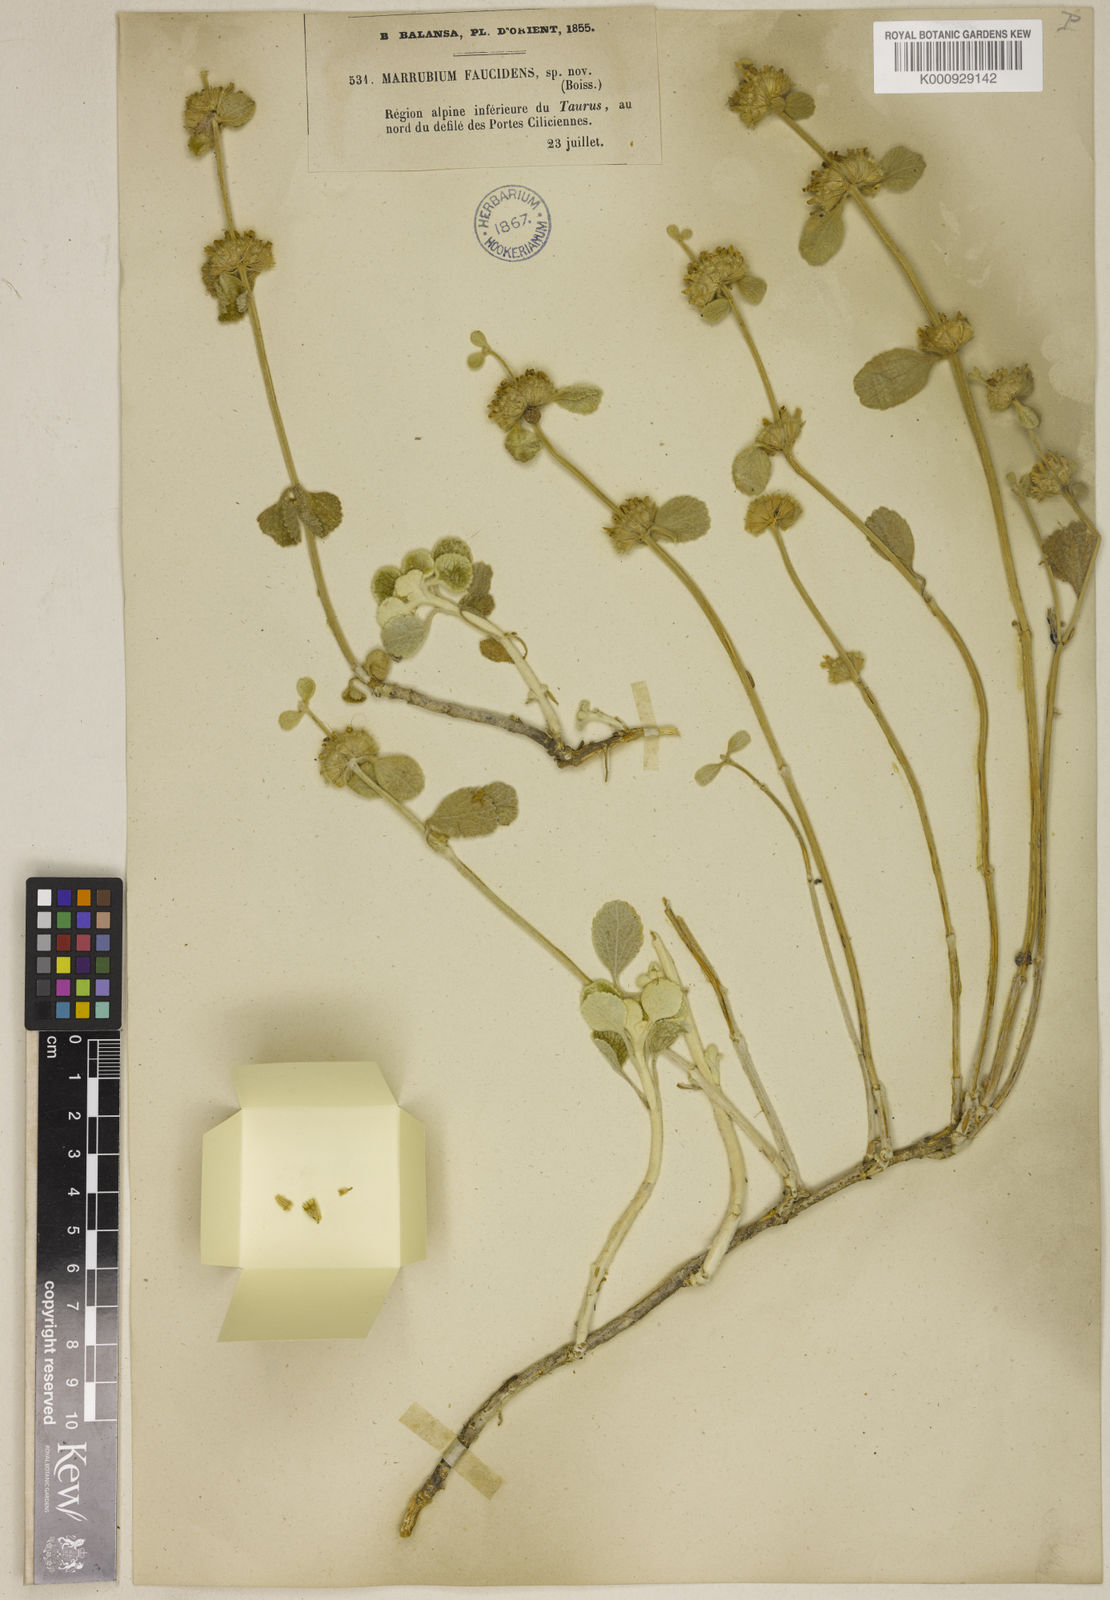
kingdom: Plantae
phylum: Tracheophyta
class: Magnoliopsida
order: Lamiales
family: Lamiaceae
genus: Marrubium
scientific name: Marrubium globosum
